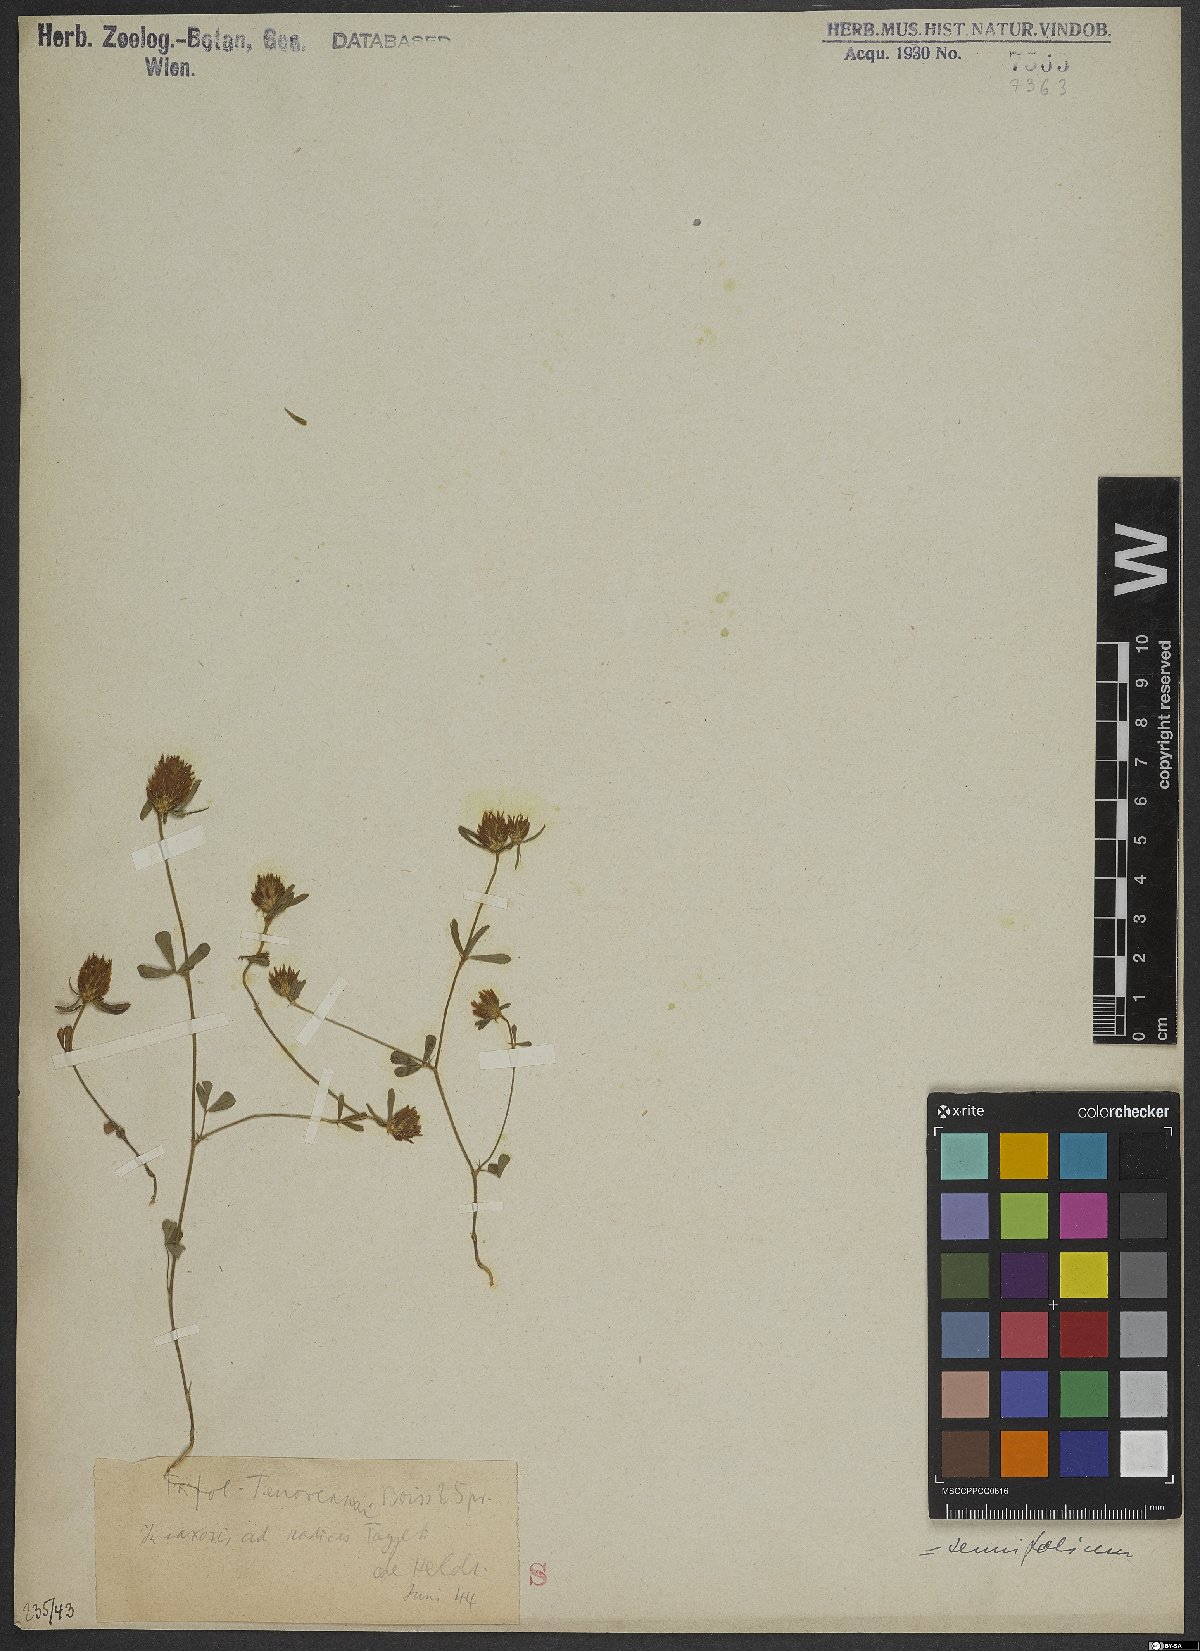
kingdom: Plantae
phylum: Tracheophyta
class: Magnoliopsida
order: Fabales
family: Fabaceae
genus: Trifolium
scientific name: Trifolium tenuifolium
